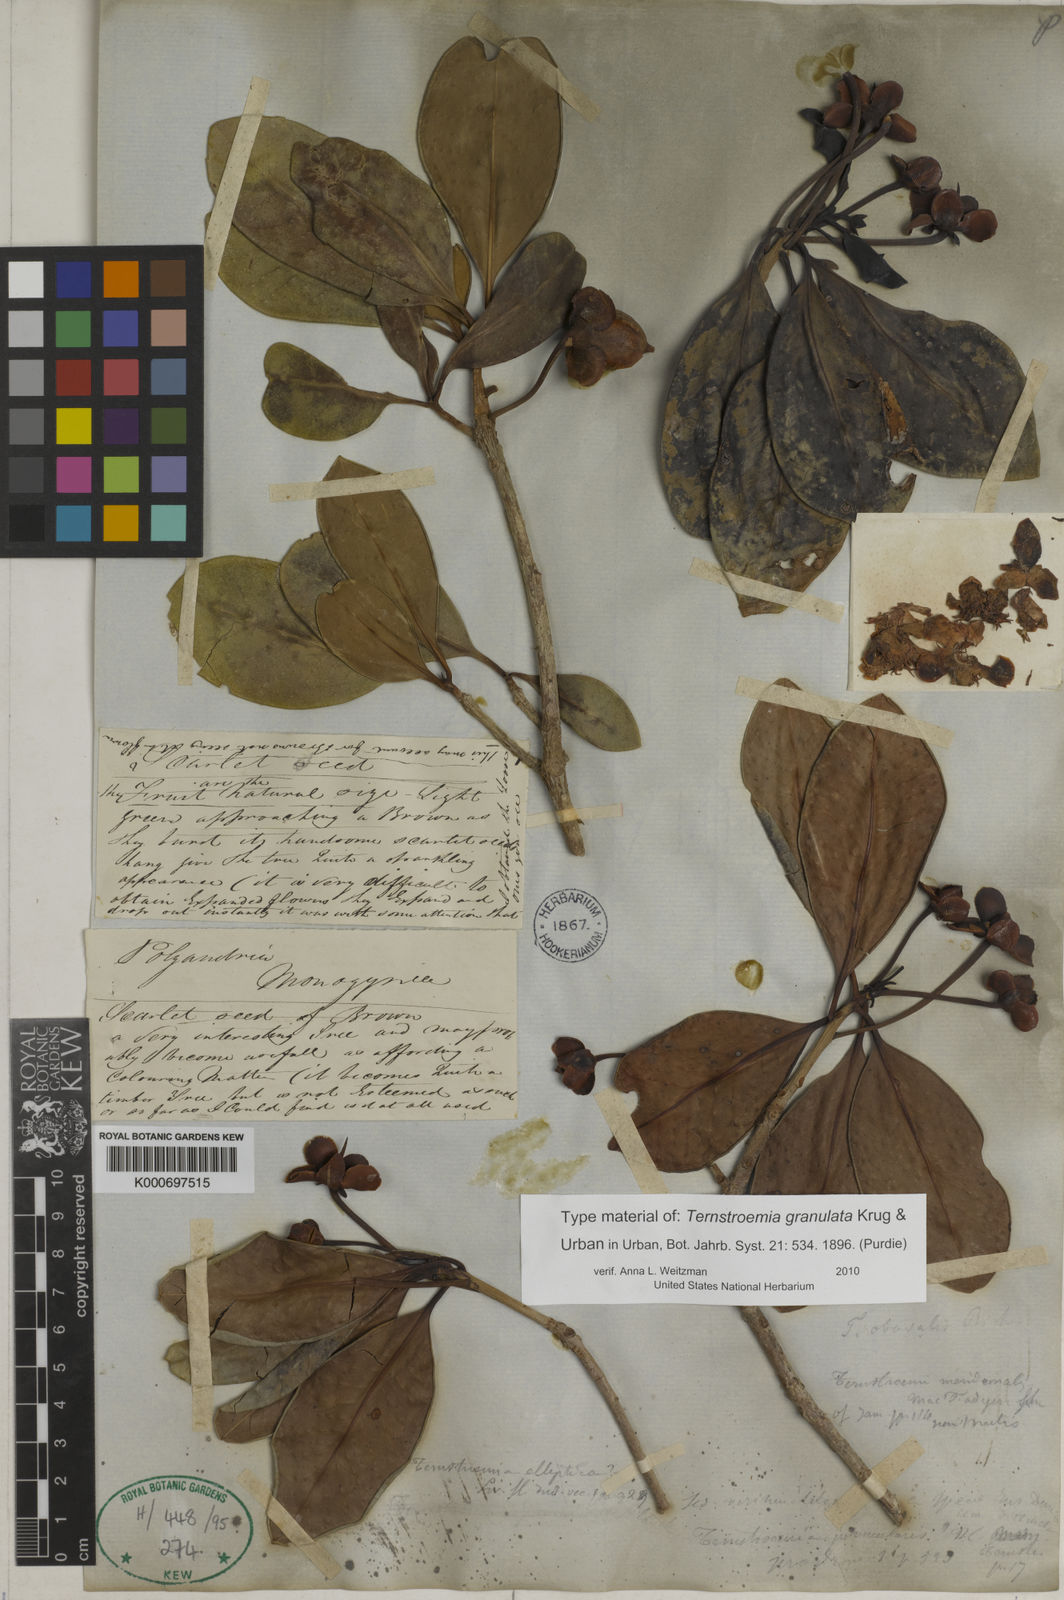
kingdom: Plantae
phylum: Tracheophyta
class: Magnoliopsida
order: Ericales
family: Pentaphylacaceae
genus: Ternstroemia
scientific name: Ternstroemia granulata
